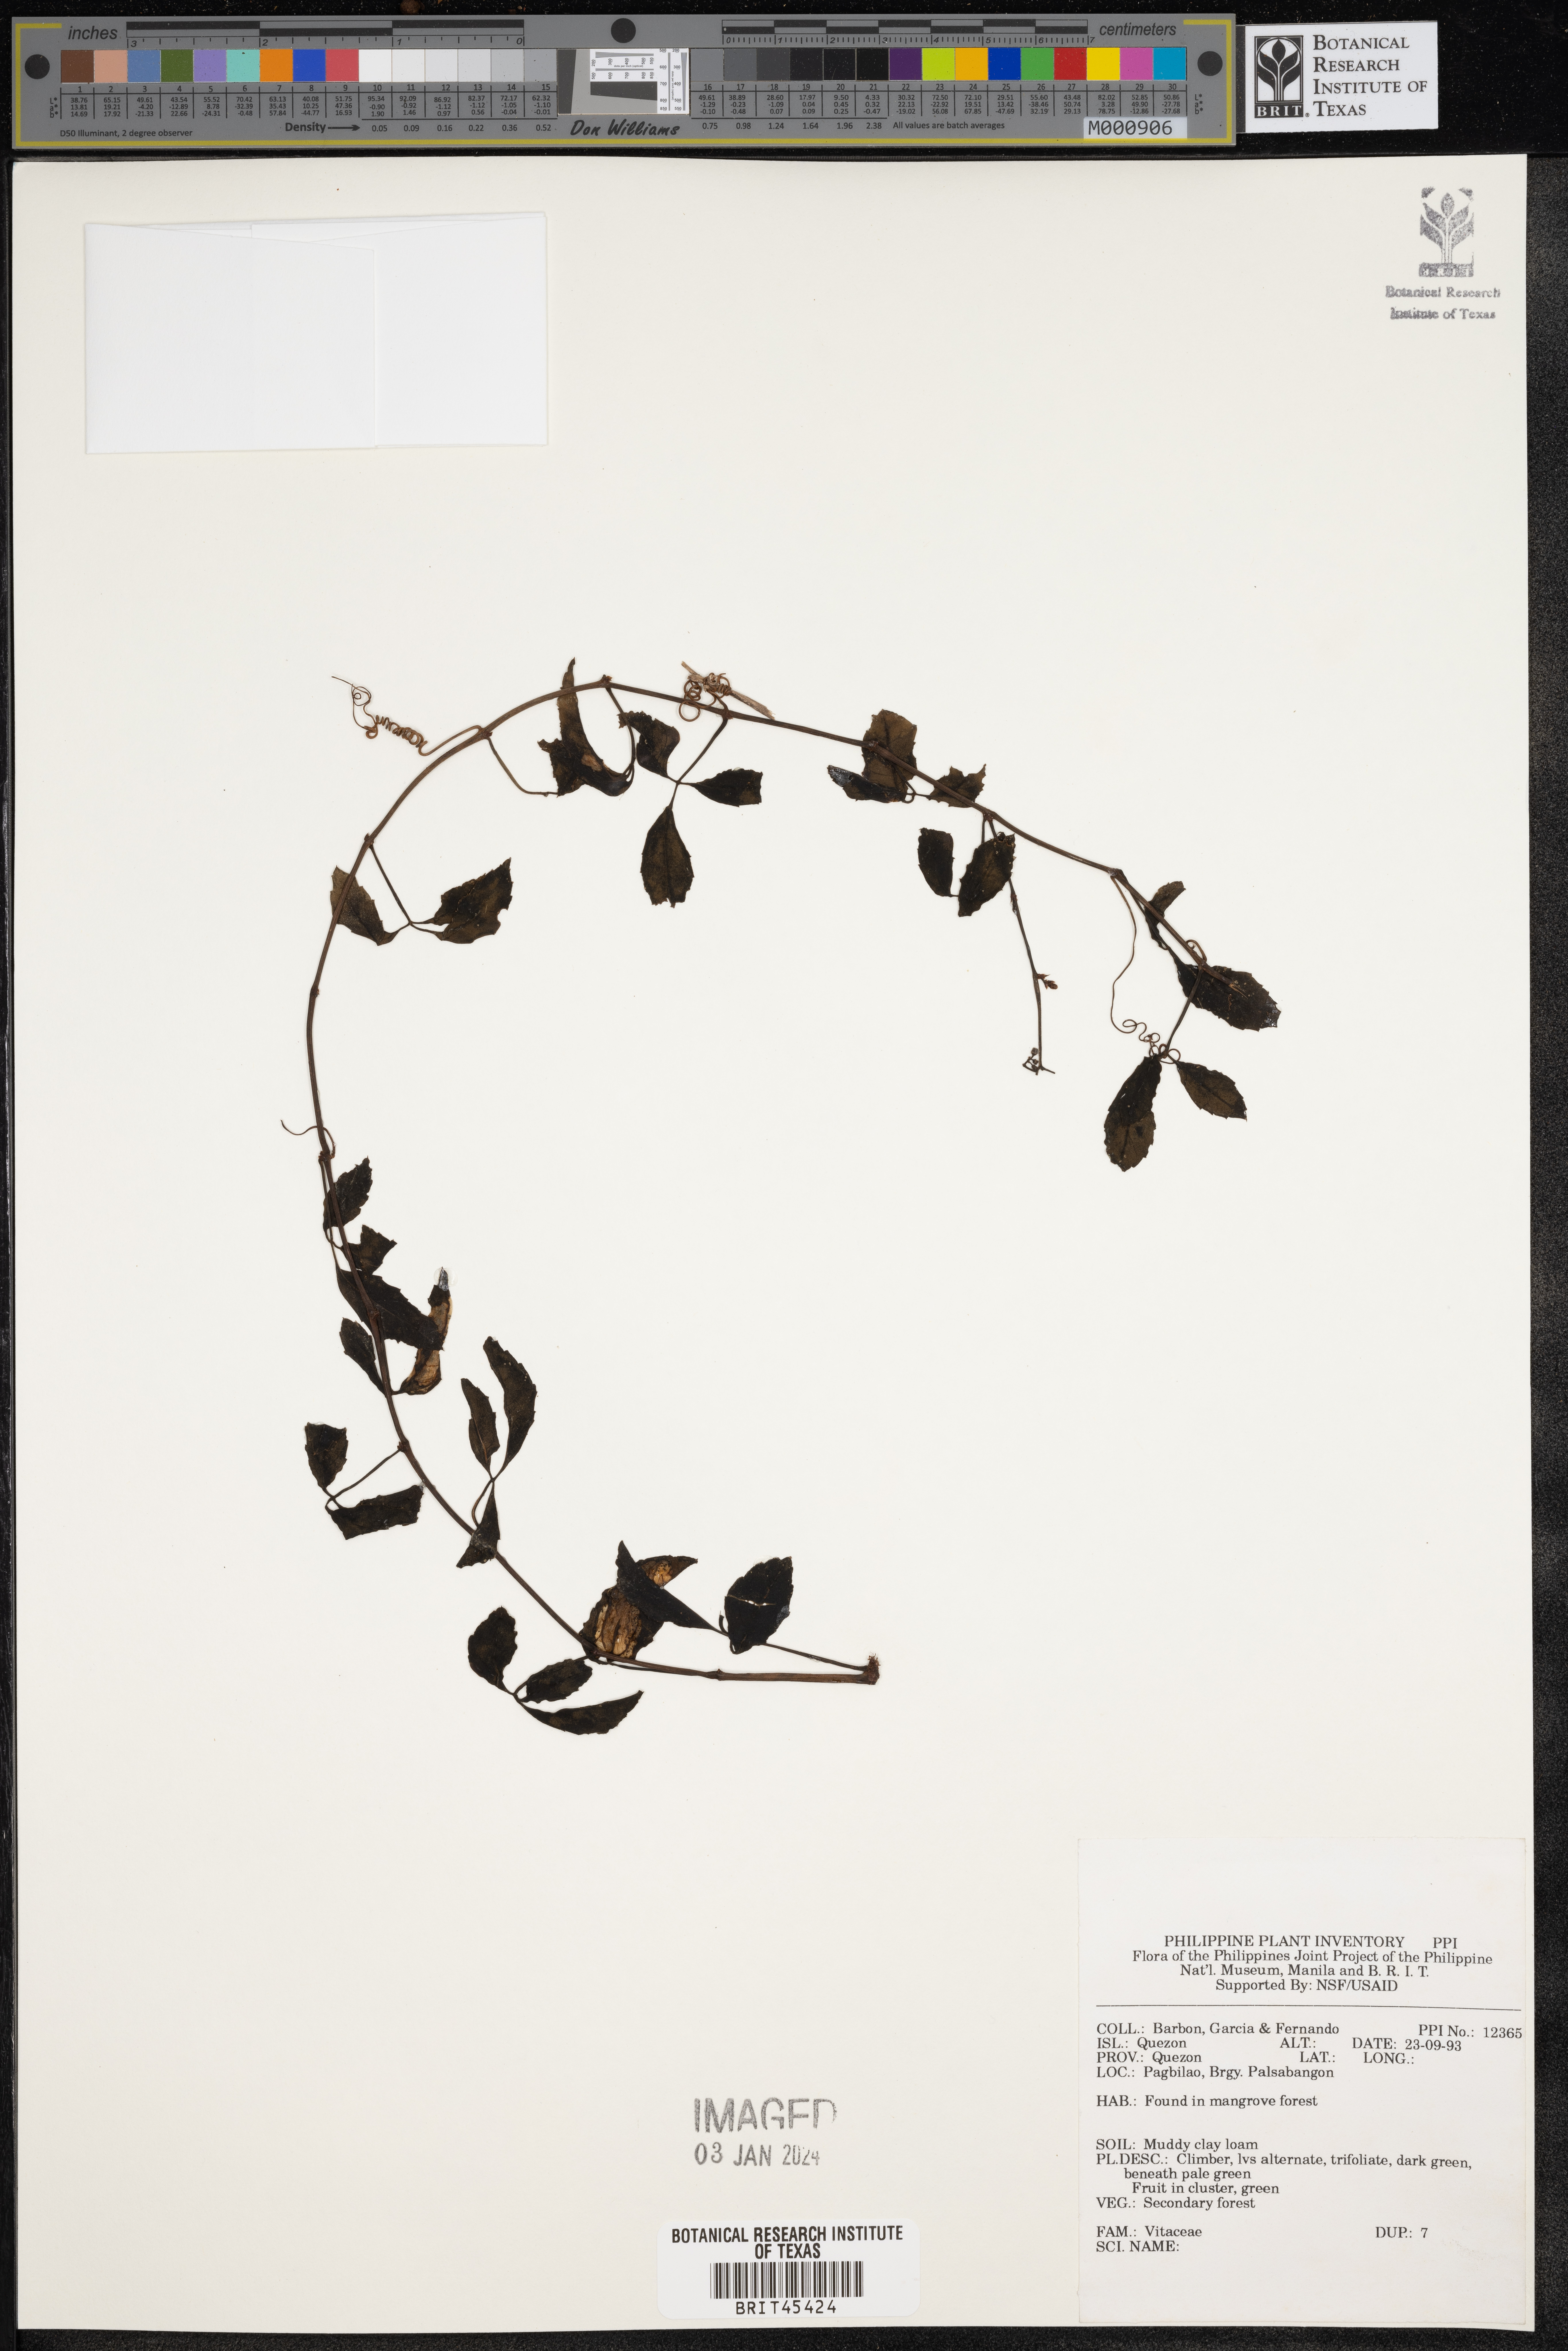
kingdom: Plantae
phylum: Tracheophyta
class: Magnoliopsida
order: Vitales
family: Vitaceae
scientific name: Vitaceae
